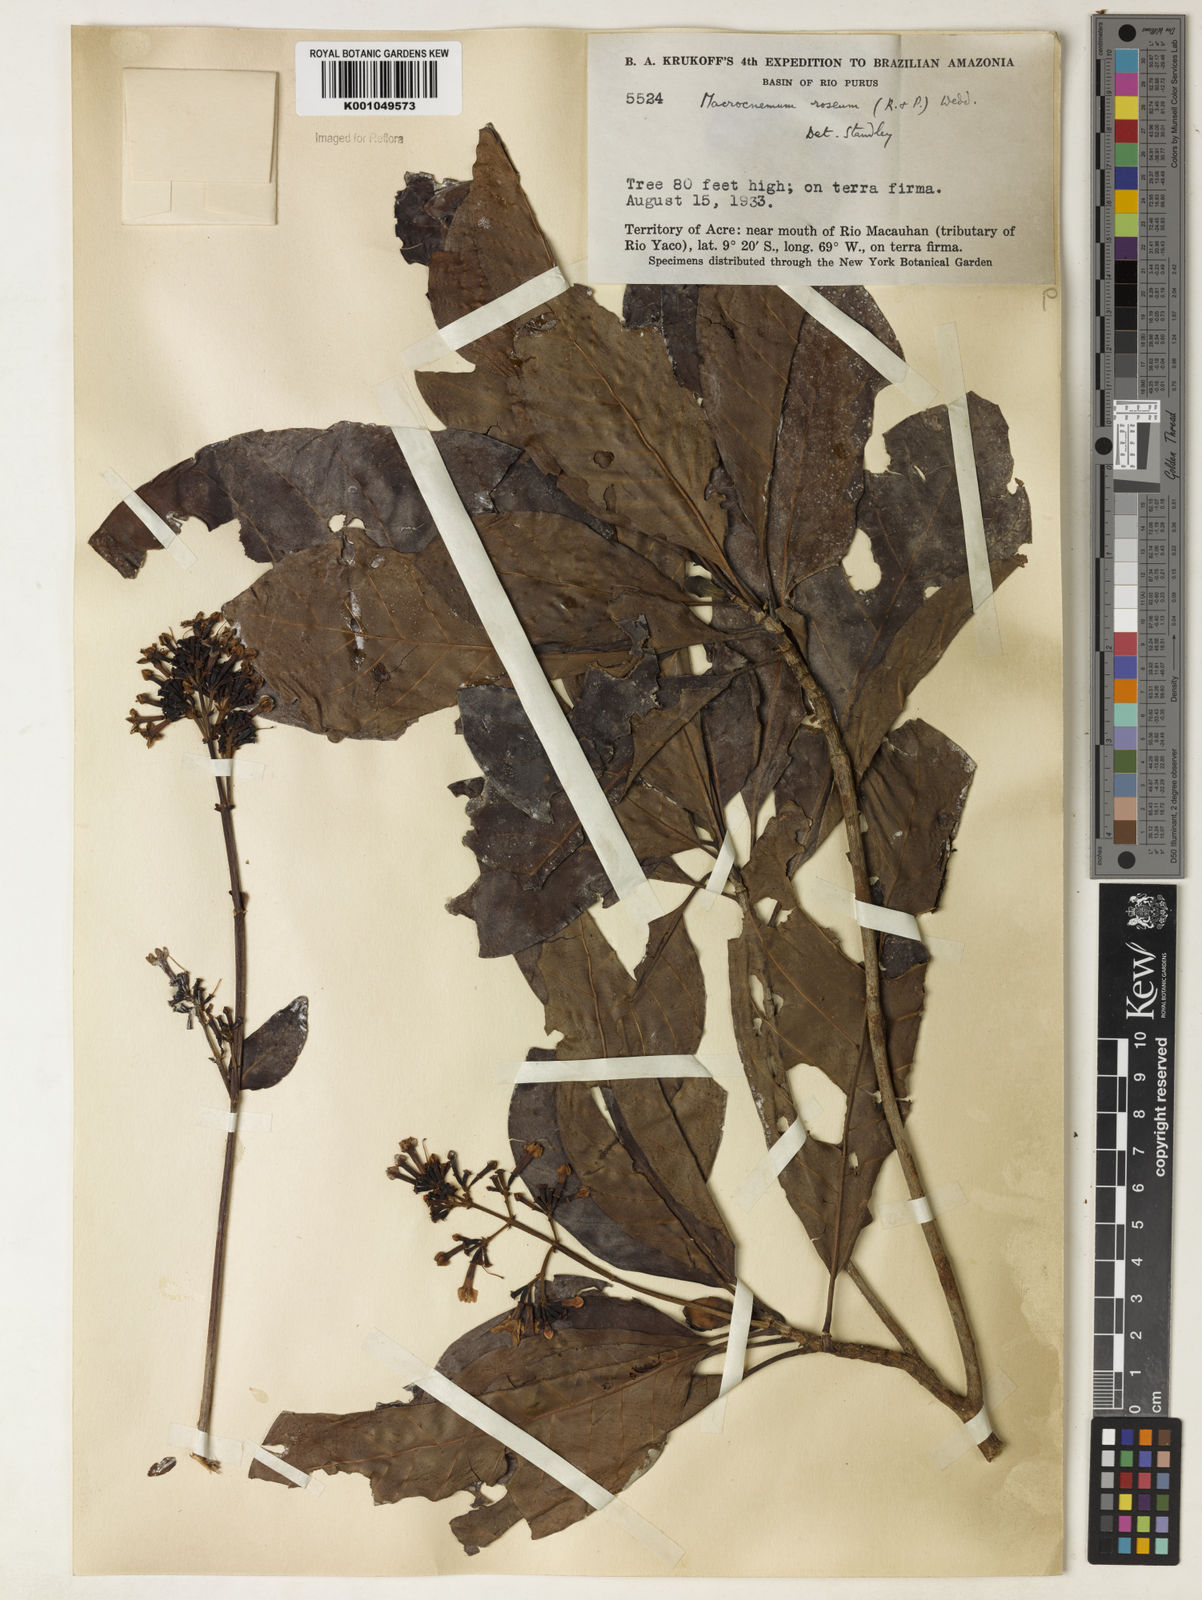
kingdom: Plantae
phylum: Tracheophyta
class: Magnoliopsida
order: Gentianales
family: Rubiaceae
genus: Macrocnemum
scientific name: Macrocnemum roseum
